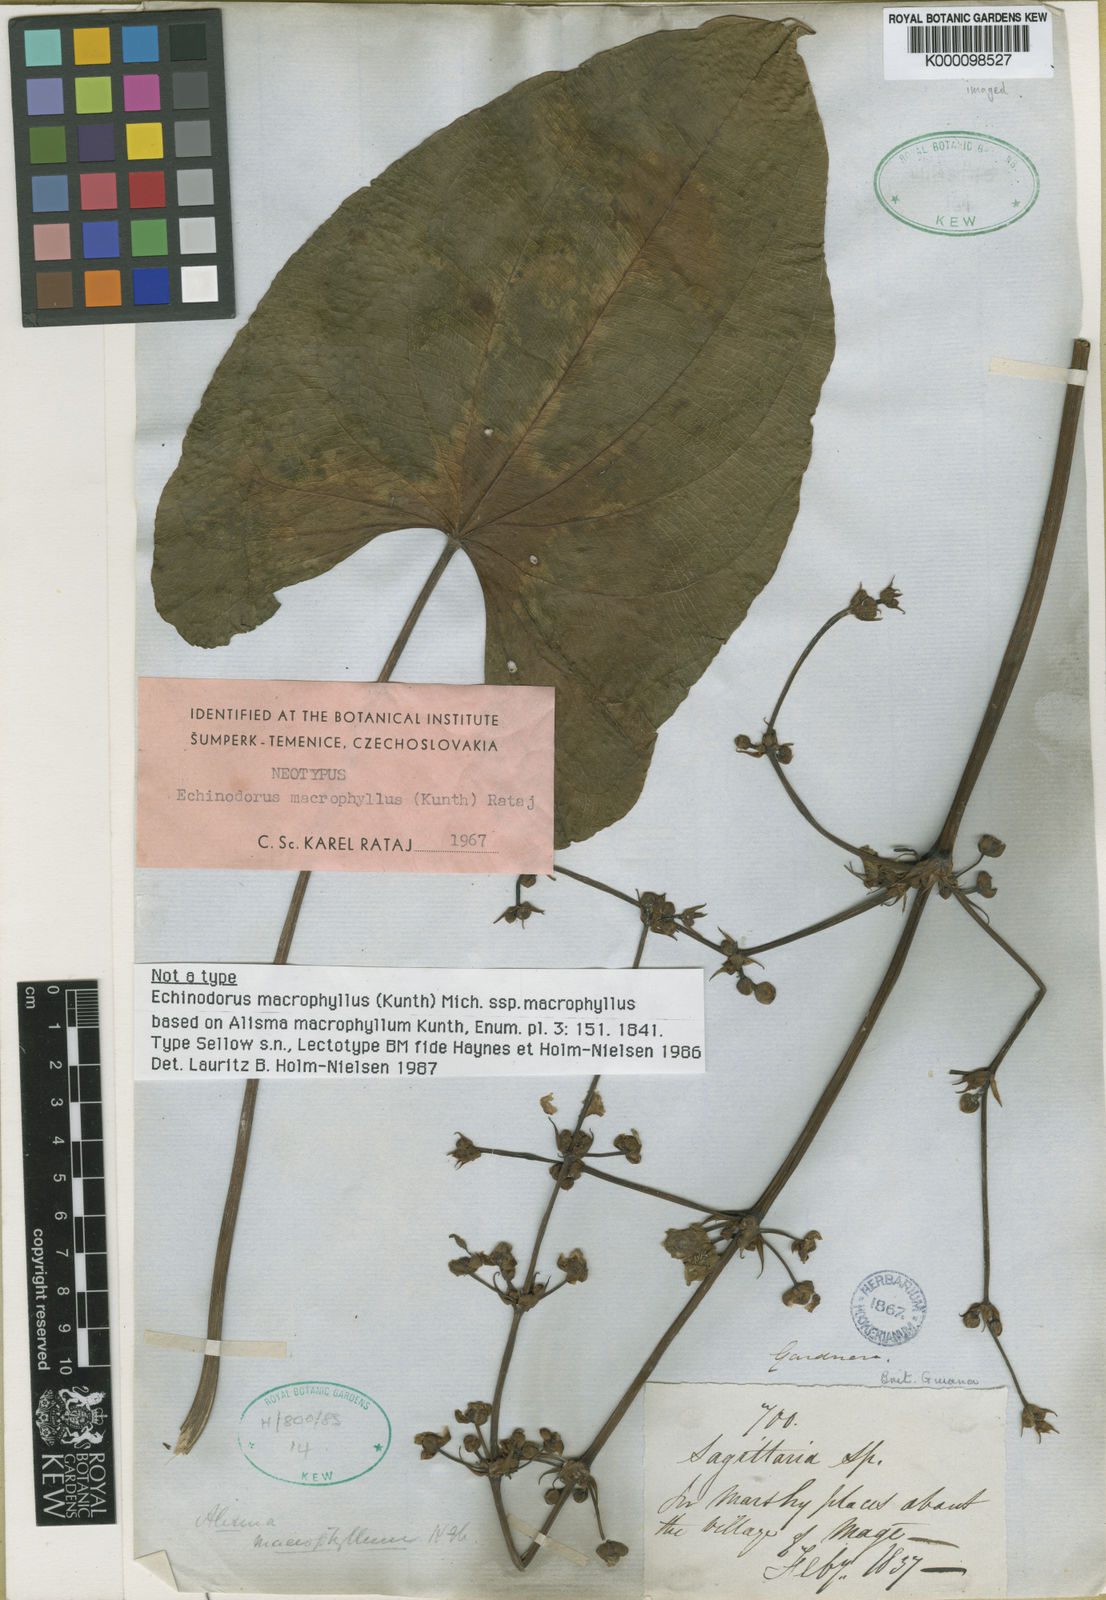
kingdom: Plantae
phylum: Tracheophyta
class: Liliopsida
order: Alismatales
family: Alismataceae
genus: Aquarius
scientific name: Aquarius macrophyllus
